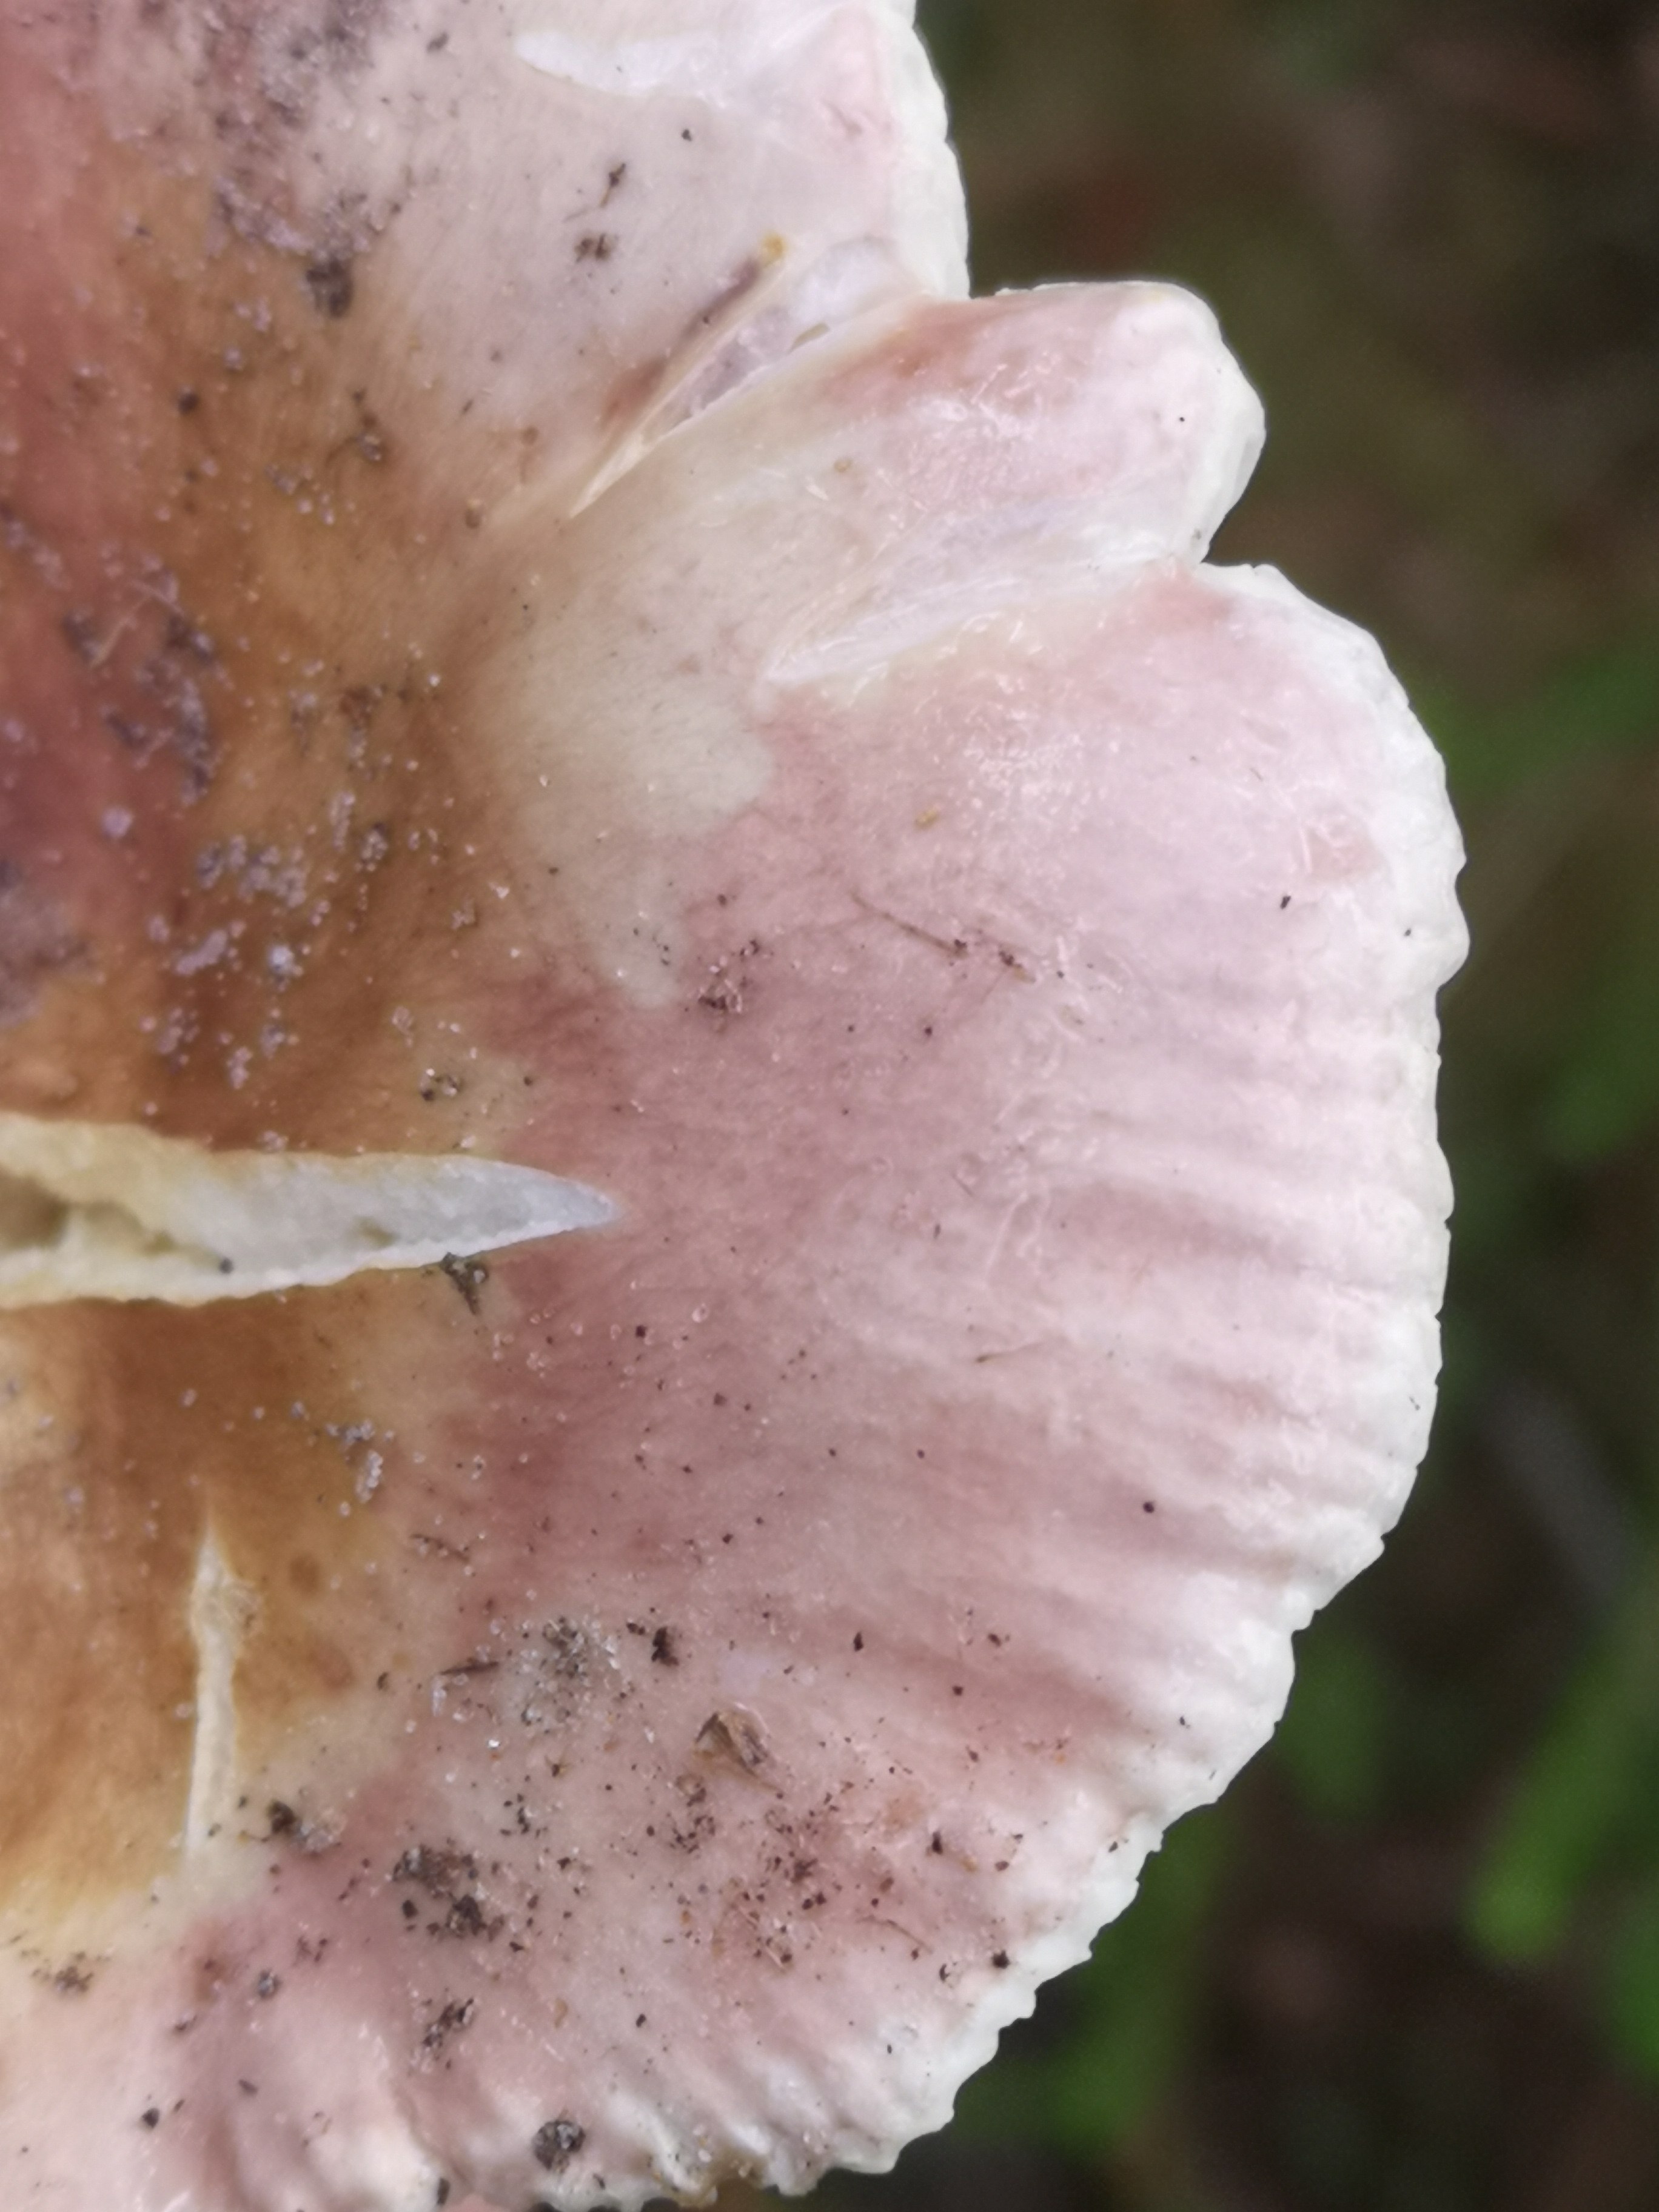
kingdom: Fungi
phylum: Basidiomycota
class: Agaricomycetes
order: Russulales
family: Russulaceae
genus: Russula
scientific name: Russula vesca
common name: spiselig skørhat
